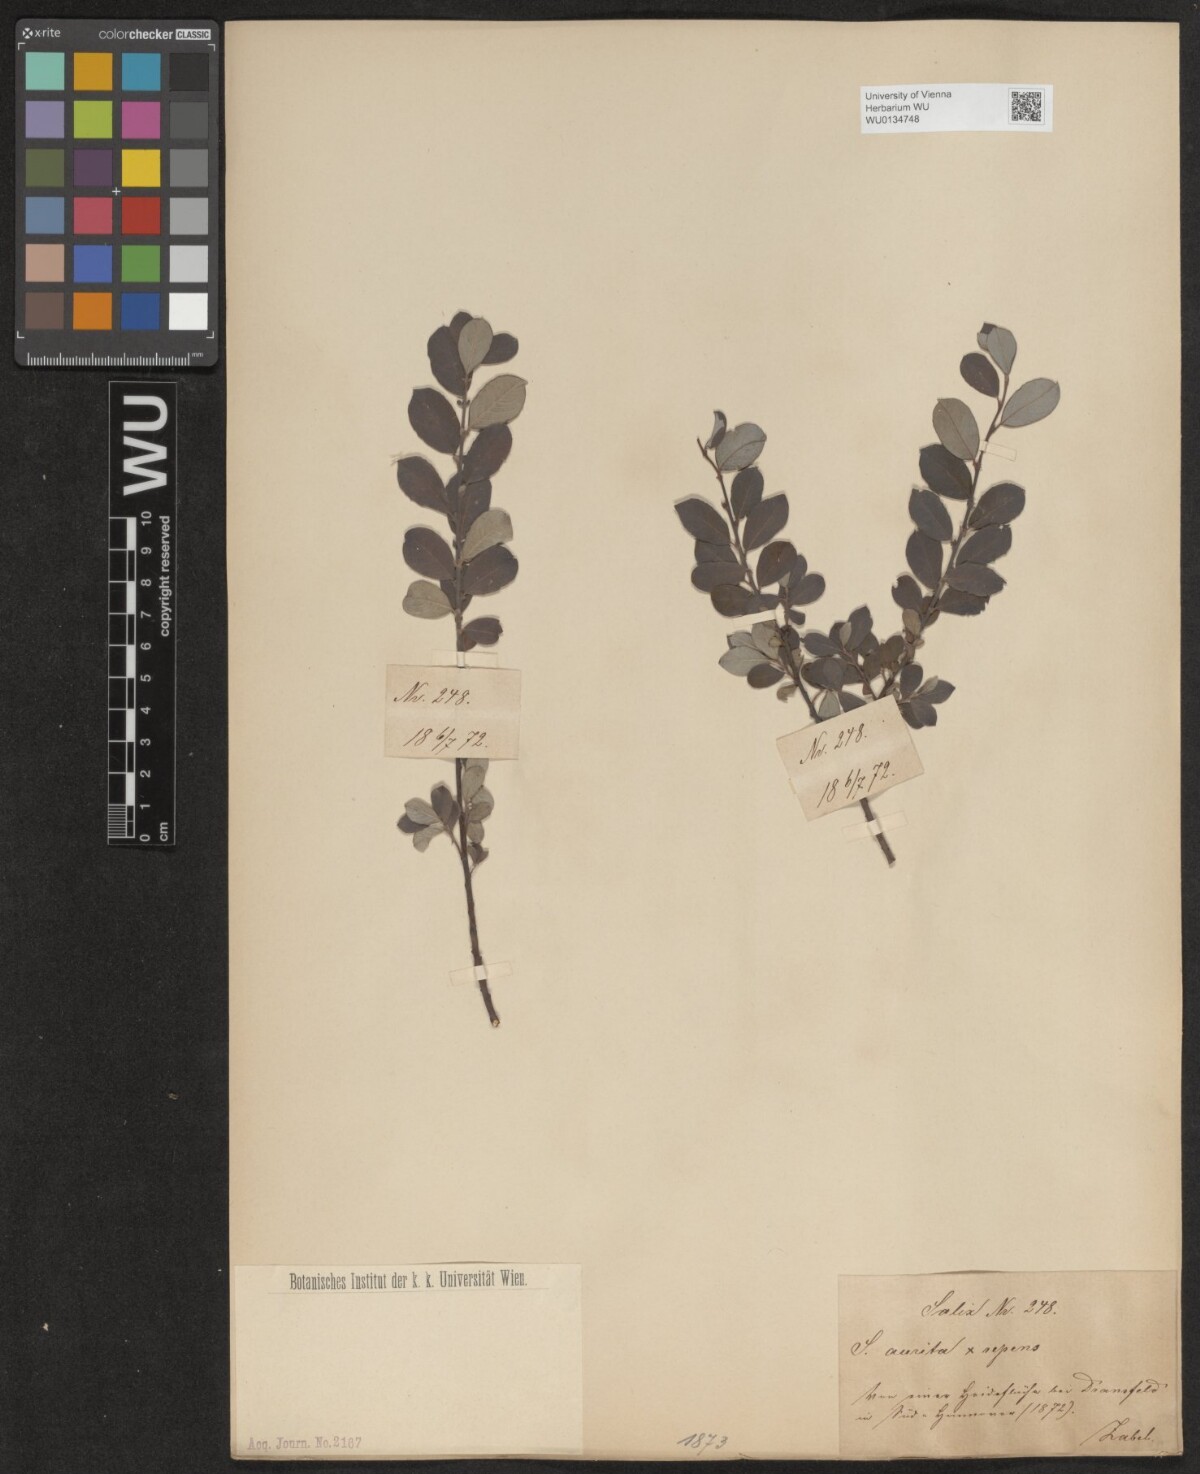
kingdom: Plantae
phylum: Tracheophyta
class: Magnoliopsida
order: Malpighiales
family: Salicaceae
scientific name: Salicaceae
